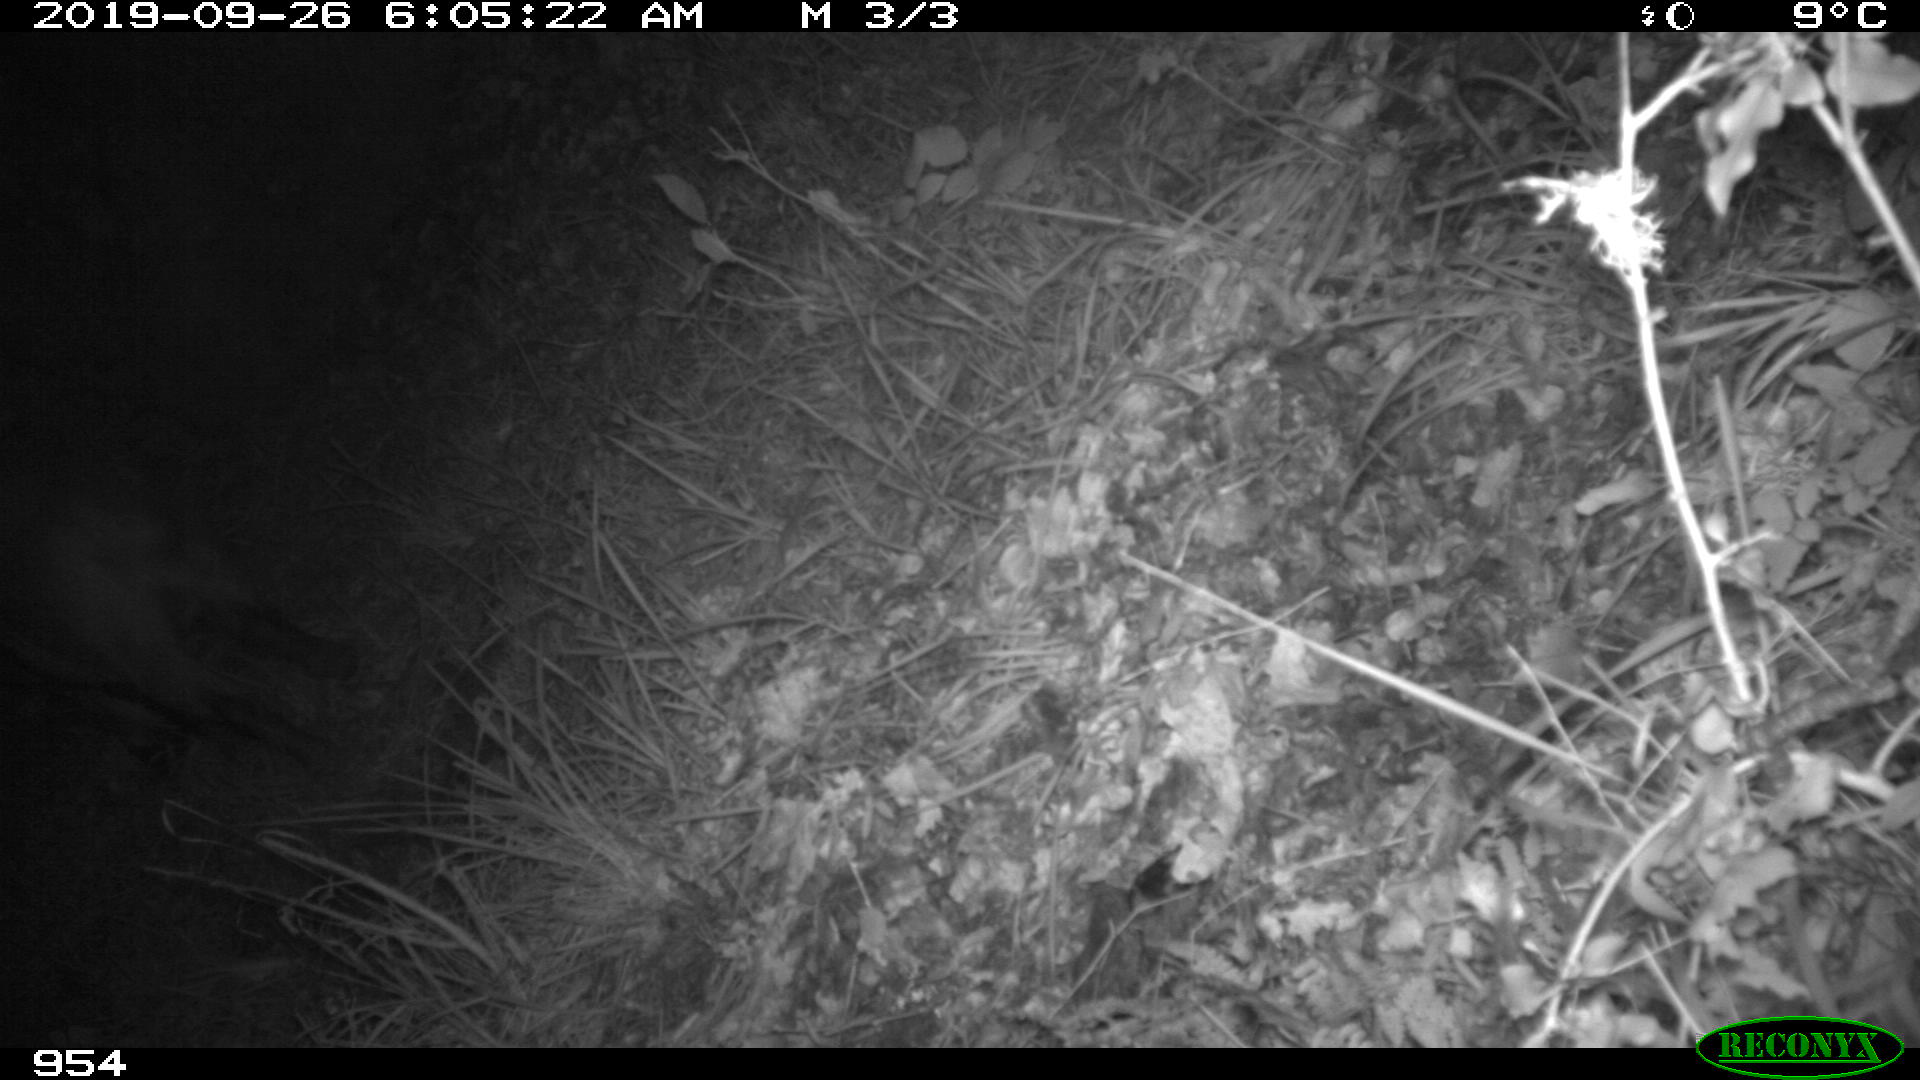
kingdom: Animalia
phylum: Chordata
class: Mammalia
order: Artiodactyla
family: Suidae
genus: Sus
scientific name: Sus scrofa
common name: Wild boar
